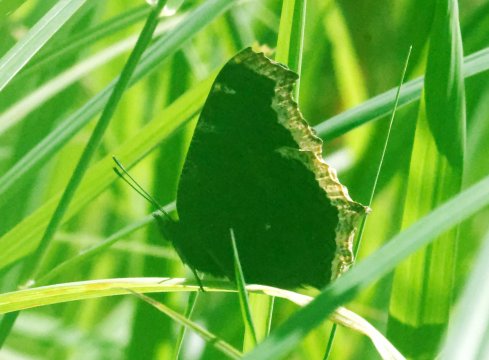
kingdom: Animalia
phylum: Arthropoda
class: Insecta
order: Lepidoptera
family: Nymphalidae
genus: Nymphalis
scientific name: Nymphalis antiopa
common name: Mourning Cloak
